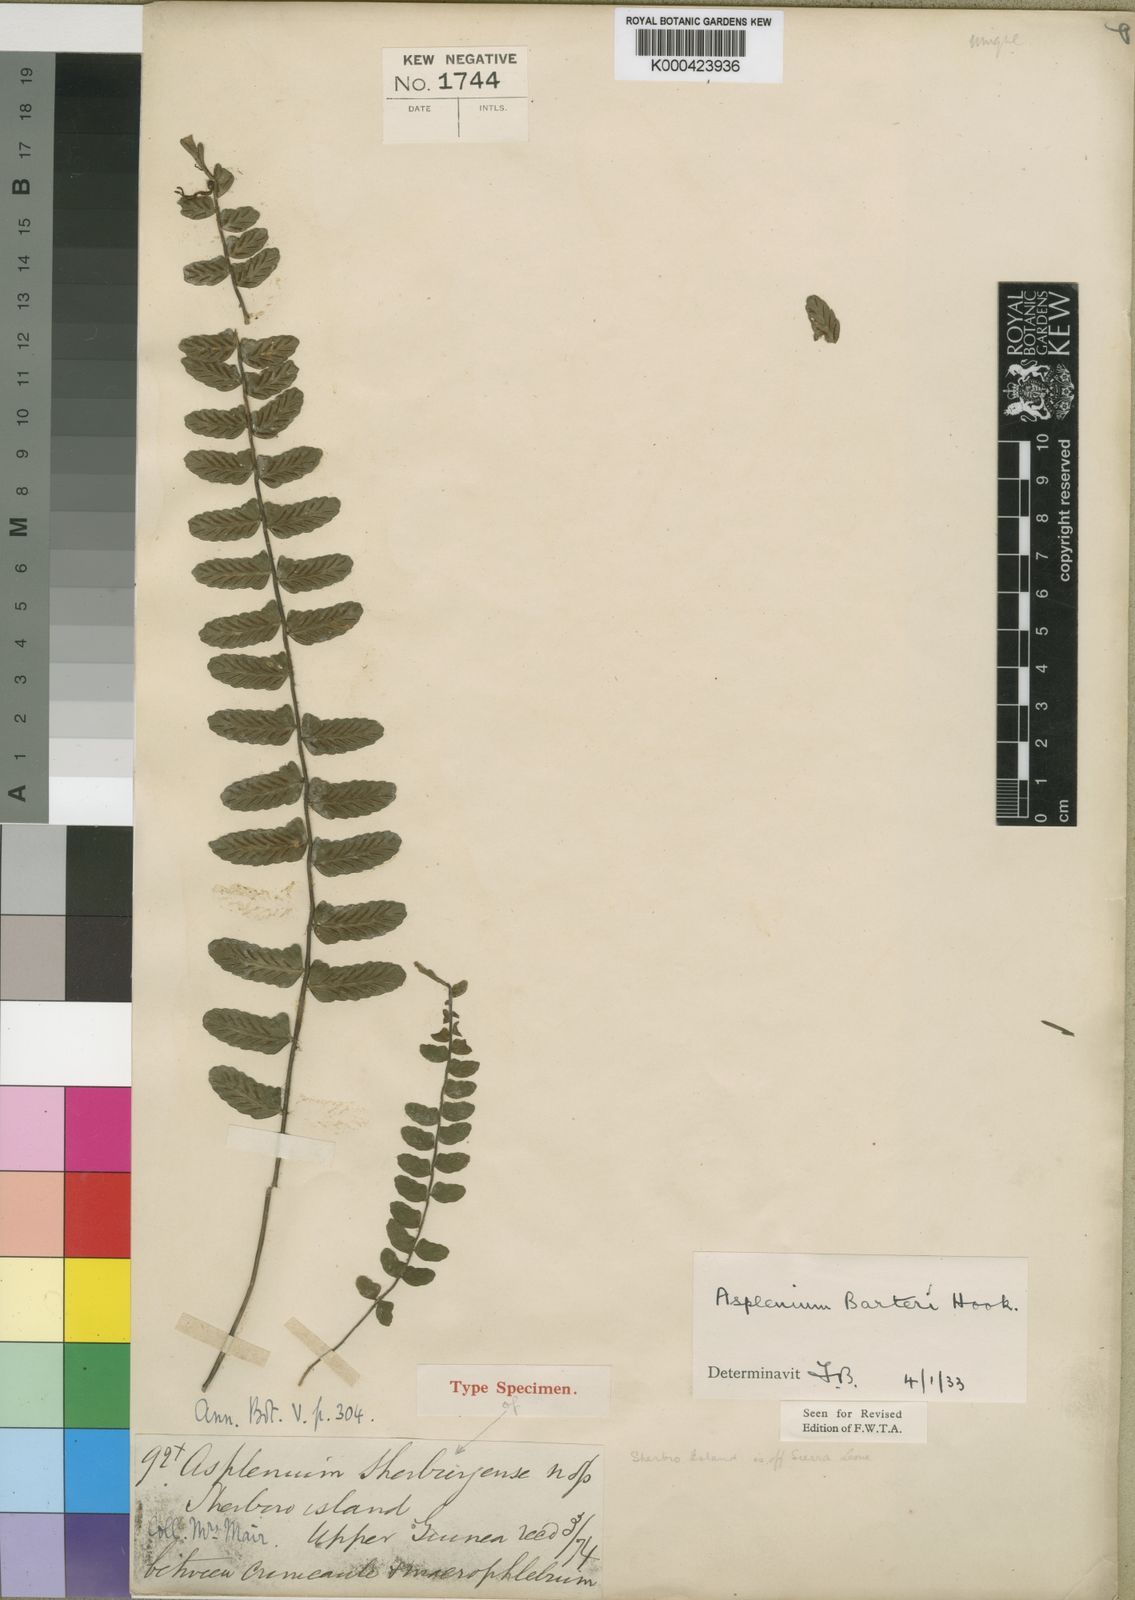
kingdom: Plantae
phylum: Tracheophyta
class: Polypodiopsida
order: Polypodiales
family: Aspleniaceae
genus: Asplenium
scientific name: Asplenium barteri
